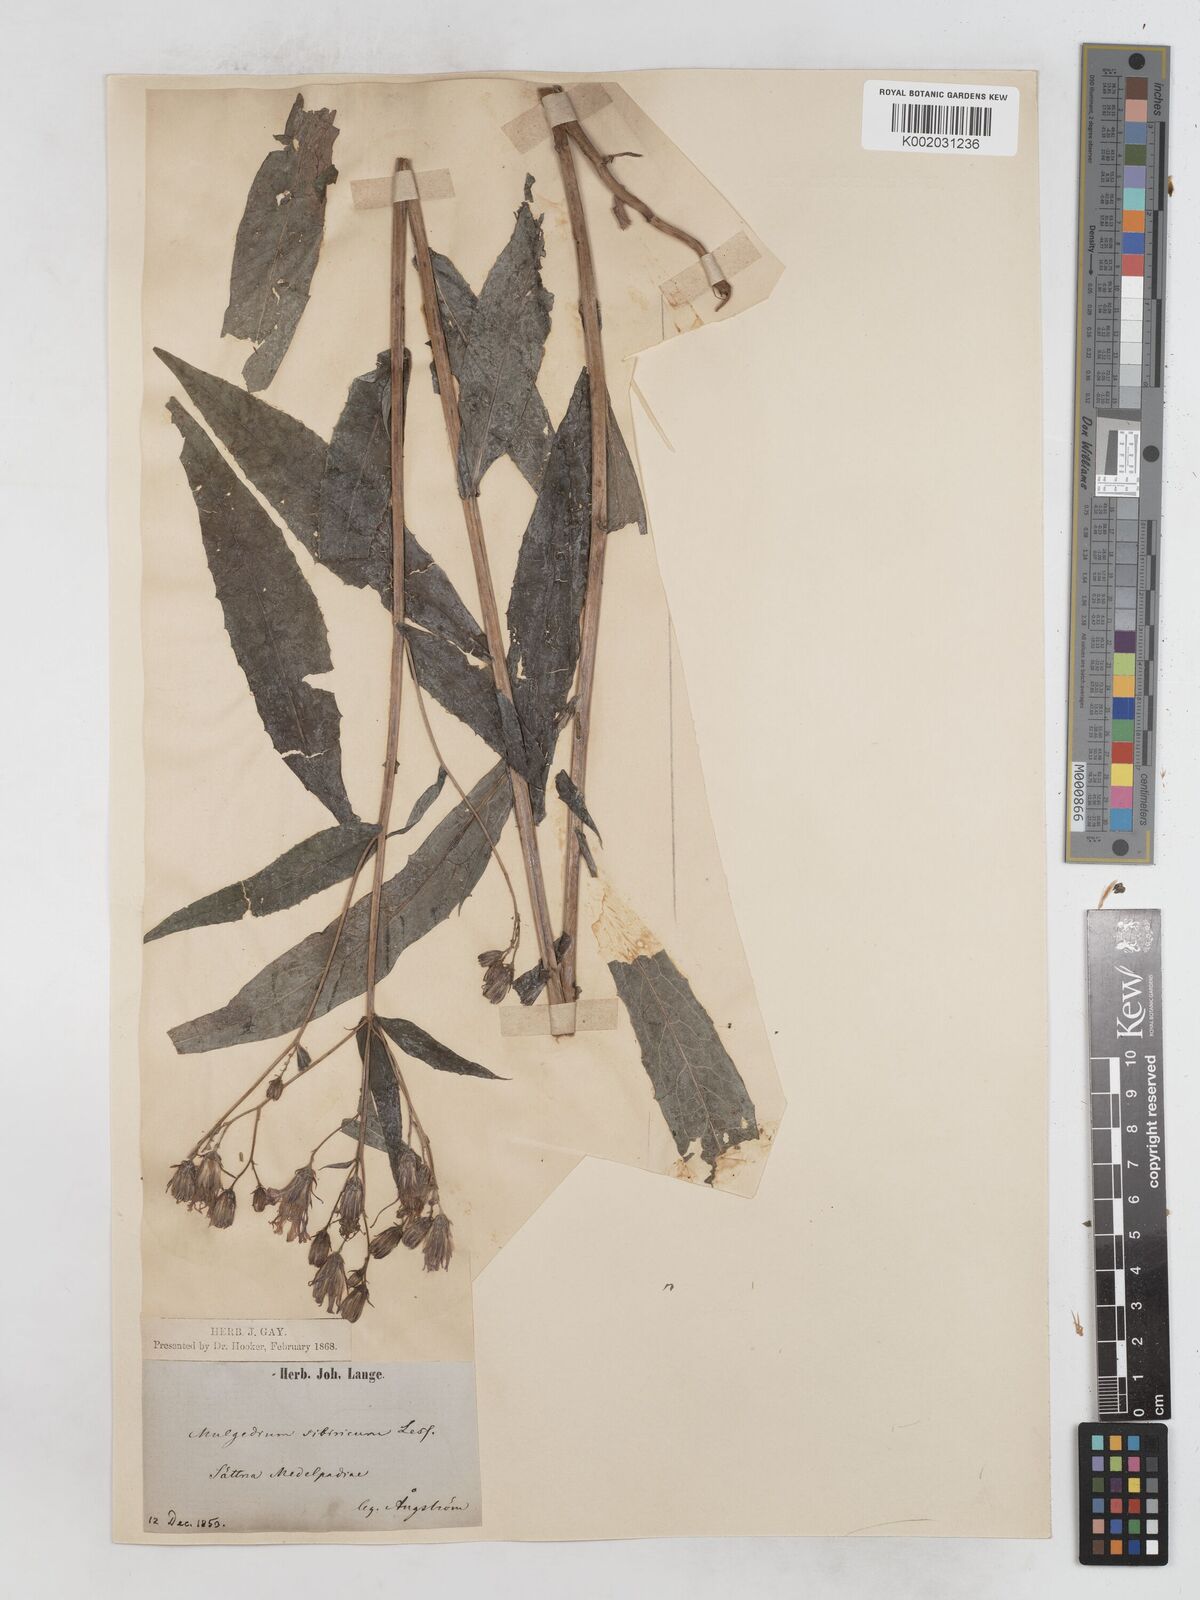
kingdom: Plantae
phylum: Tracheophyta
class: Magnoliopsida
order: Asterales
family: Asteraceae
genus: Lactuca
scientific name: Lactuca sibirica
